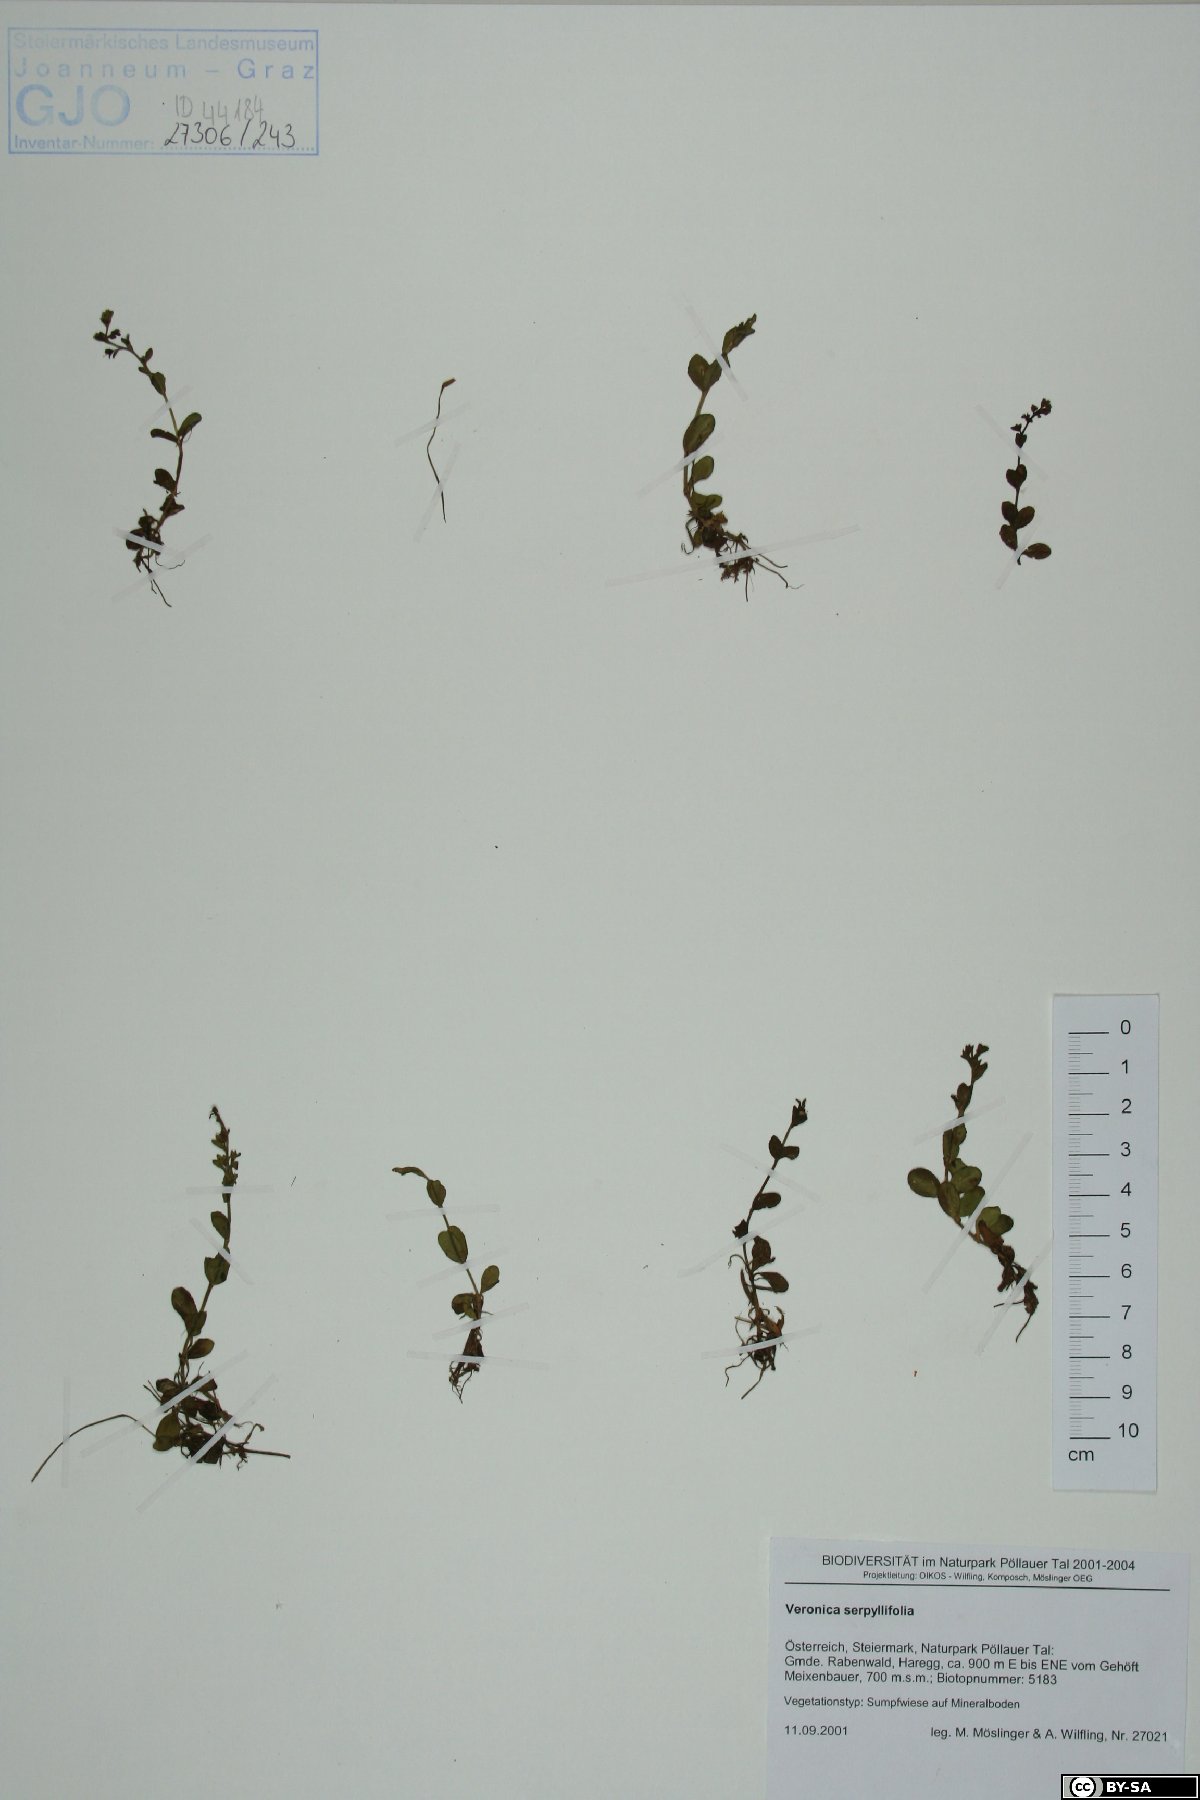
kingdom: Plantae
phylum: Tracheophyta
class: Magnoliopsida
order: Lamiales
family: Plantaginaceae
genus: Veronica
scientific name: Veronica serpyllifolia
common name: Thyme-leaved speedwell
